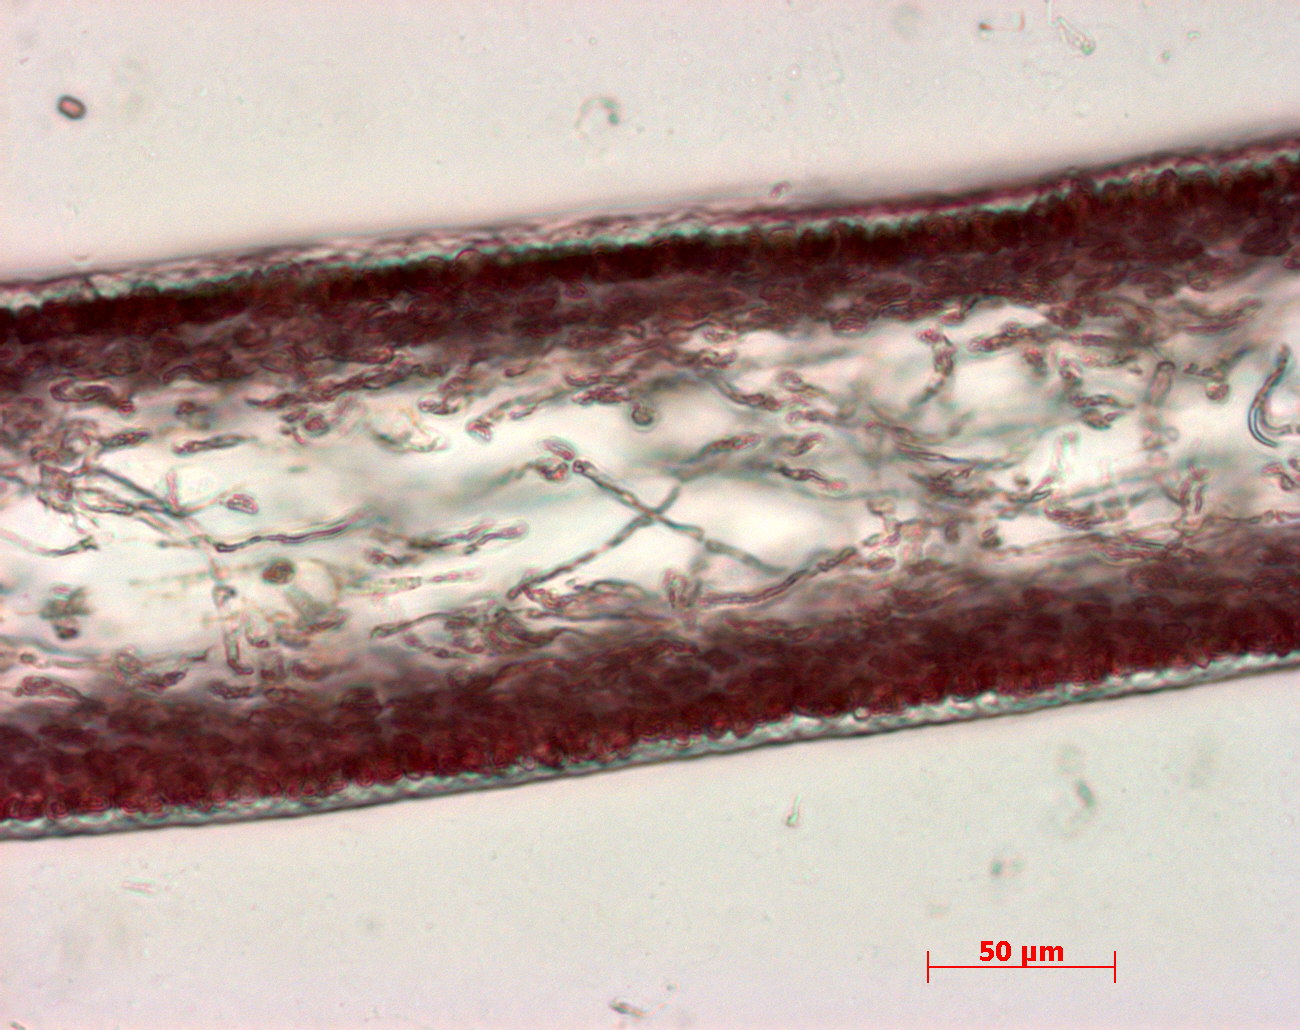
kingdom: Plantae
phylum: Rhodophyta
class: Florideophyceae
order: Halymeniales
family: Halymeniaceae
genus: Cryptonemia
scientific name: Cryptonemia latissima
